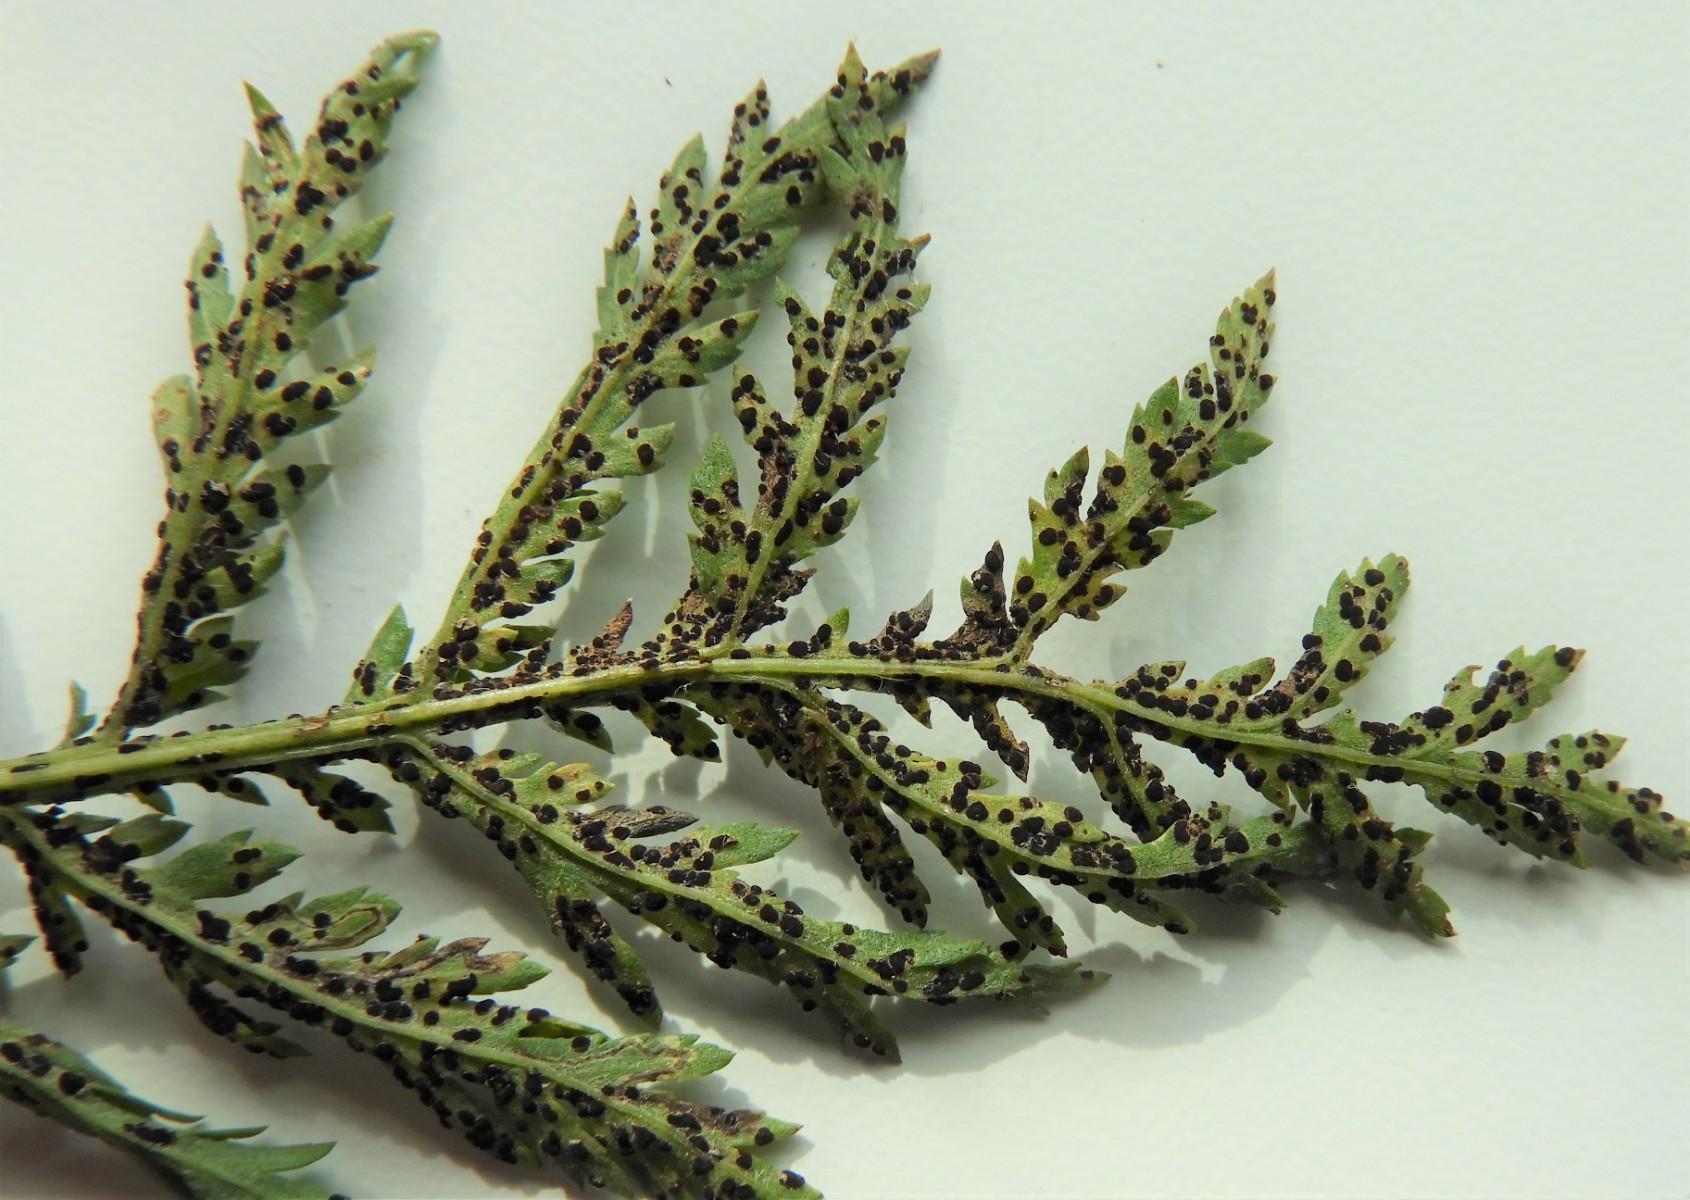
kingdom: Fungi
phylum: Basidiomycota
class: Pucciniomycetes
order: Pucciniales
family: Pucciniaceae
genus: Puccinia
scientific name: Puccinia tanaceti
